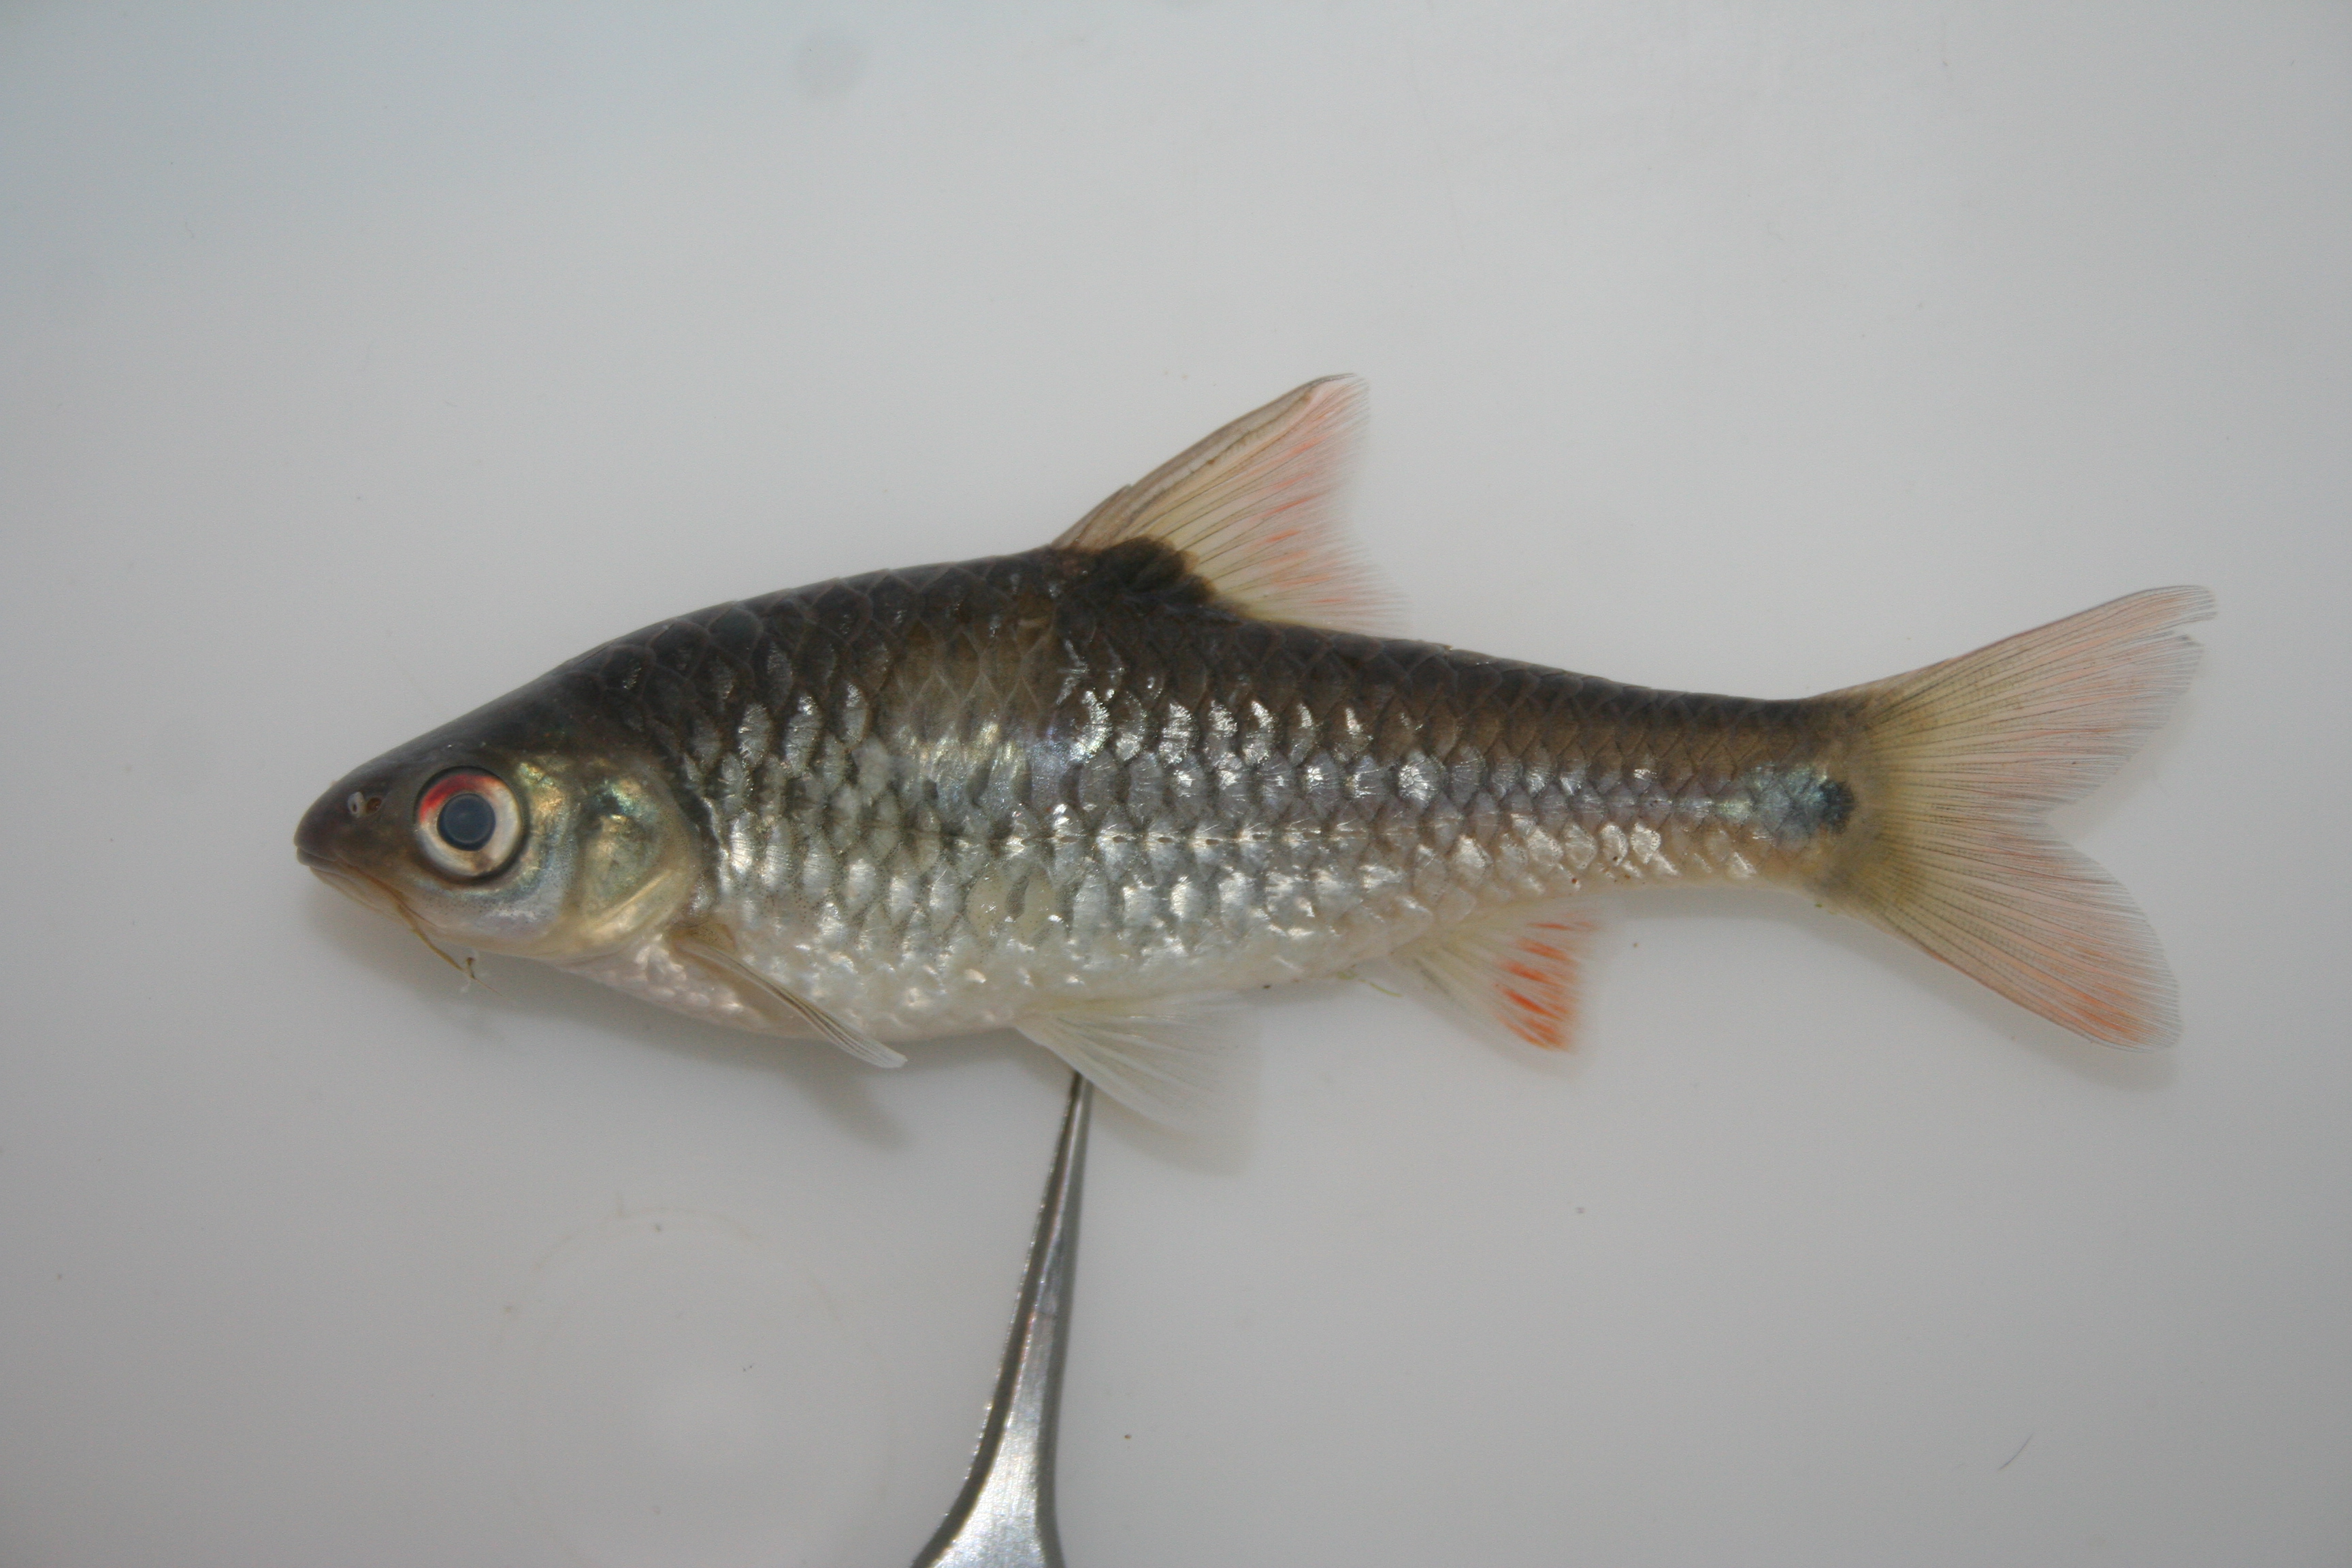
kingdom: Animalia
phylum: Chordata
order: Cypriniformes
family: Cyprinidae
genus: Barbus
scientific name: Barbus
